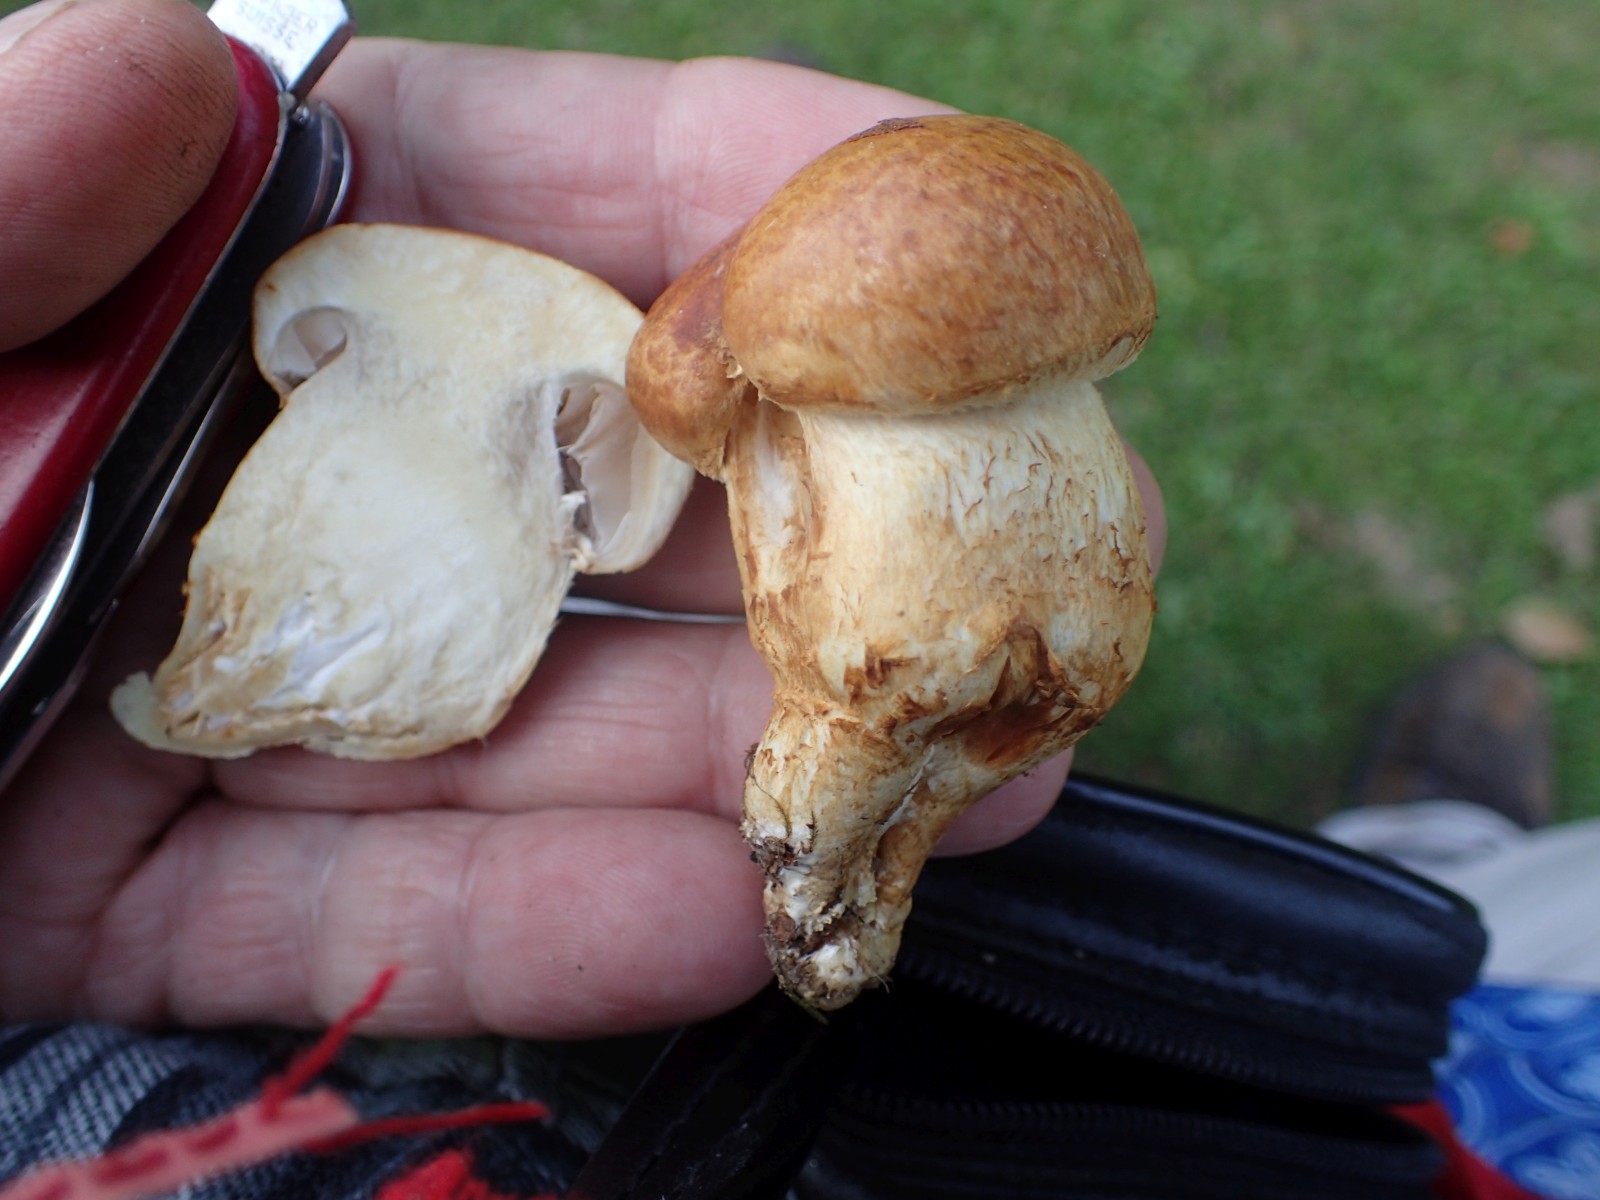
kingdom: Fungi
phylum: Basidiomycota
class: Agaricomycetes
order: Agaricales
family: Cortinariaceae
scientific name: Cortinariaceae
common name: slørhatfamilien
